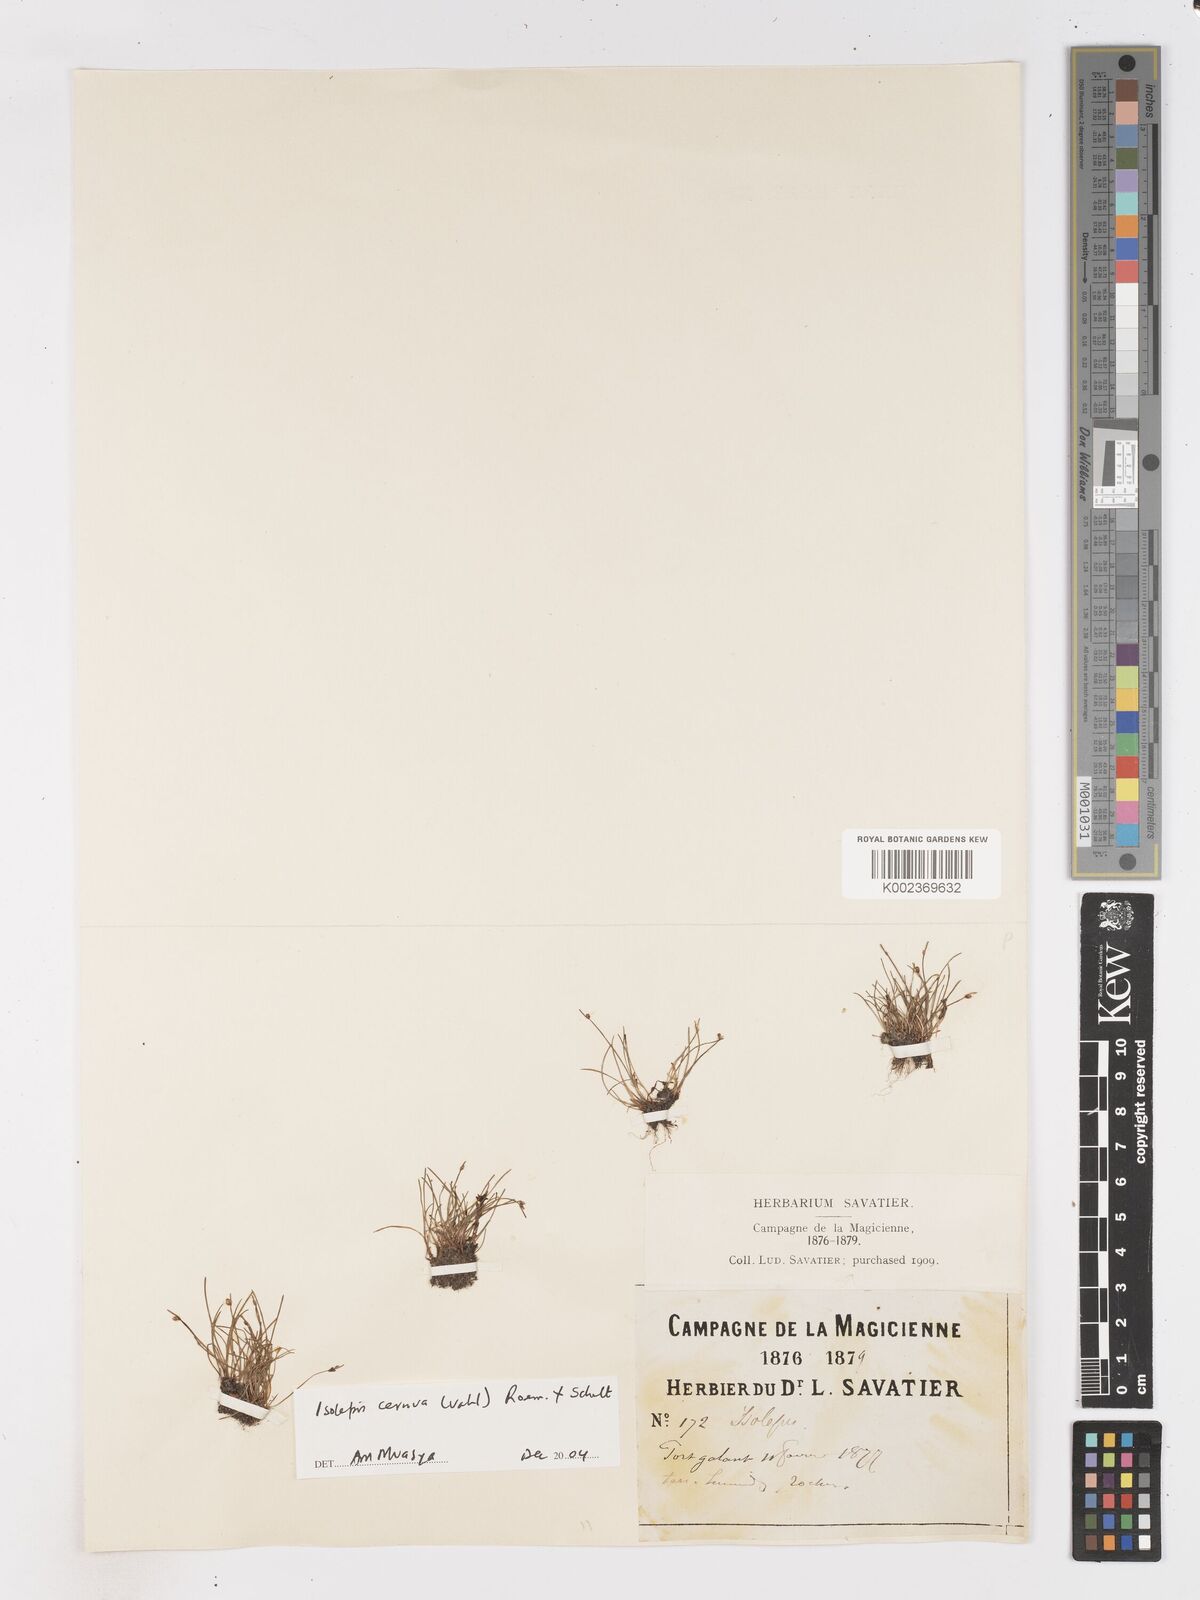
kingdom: Plantae
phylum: Tracheophyta
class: Liliopsida
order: Poales
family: Cyperaceae
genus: Isolepis
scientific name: Isolepis cernua
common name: Slender club-rush
